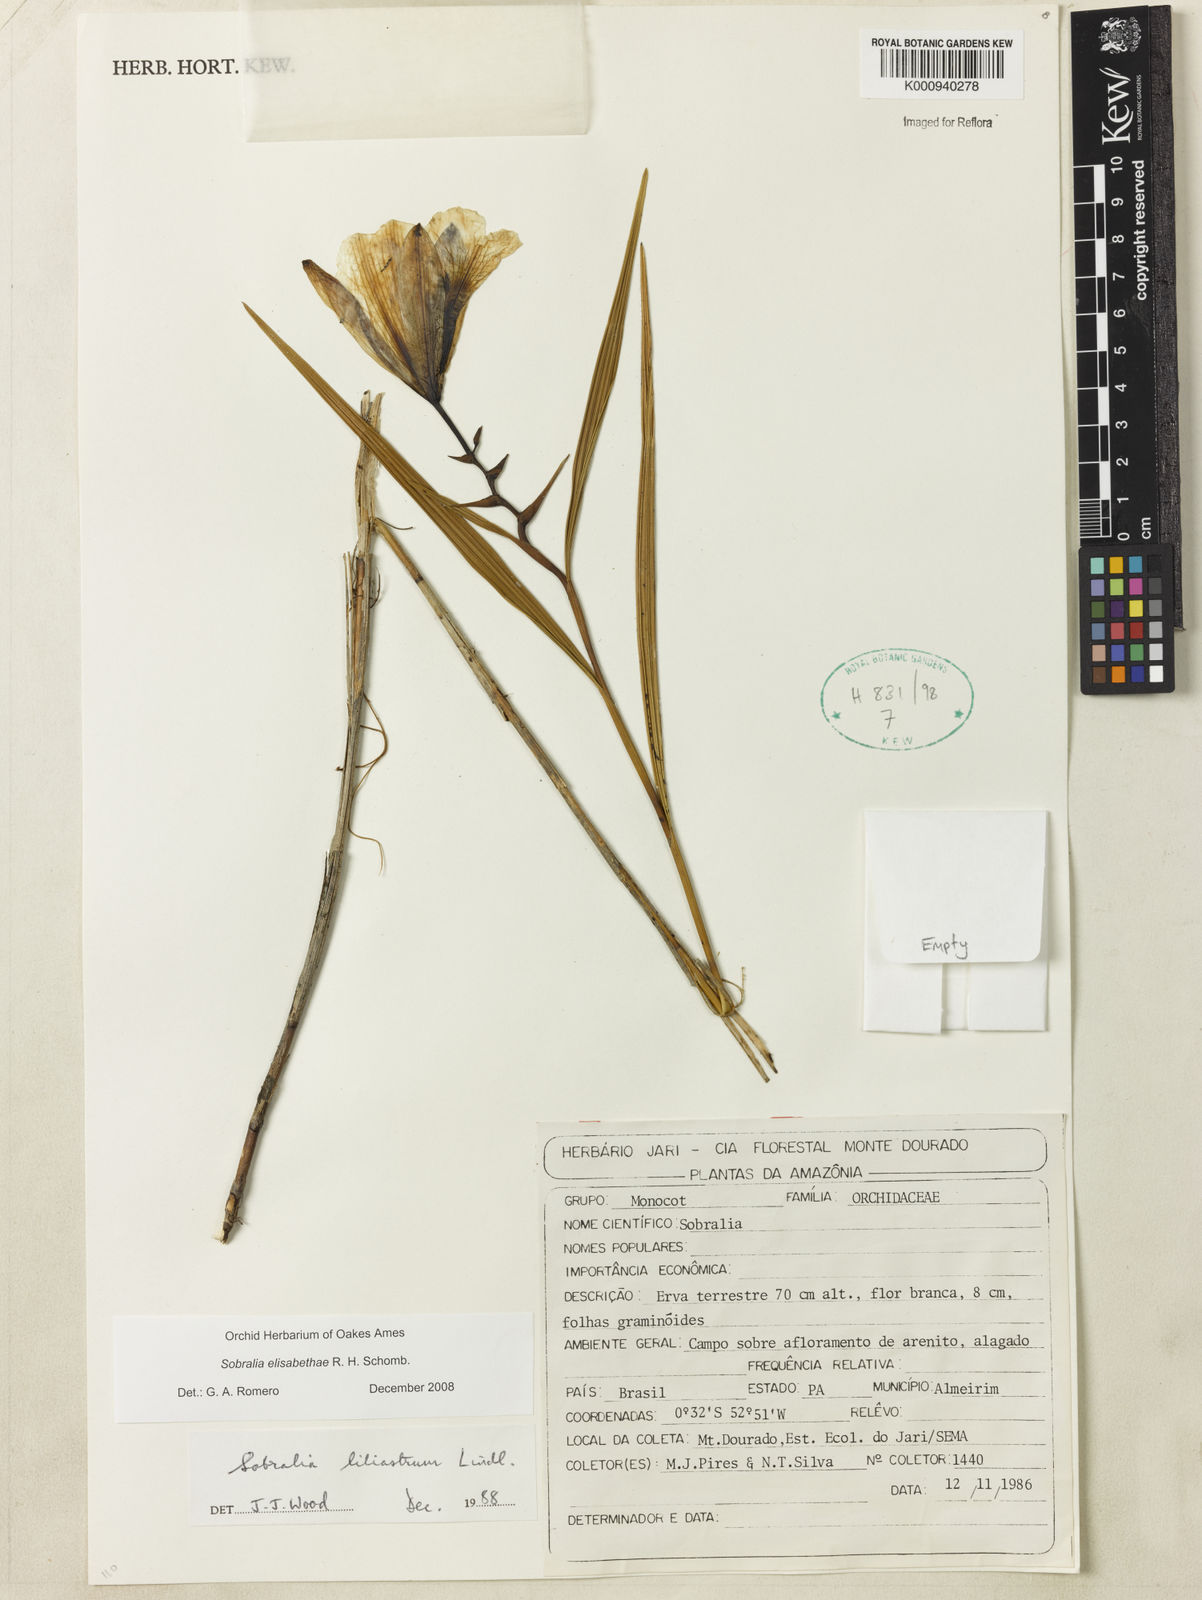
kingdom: Plantae
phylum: Tracheophyta
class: Liliopsida
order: Asparagales
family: Orchidaceae
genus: Sobralia
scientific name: Sobralia elisabethae
